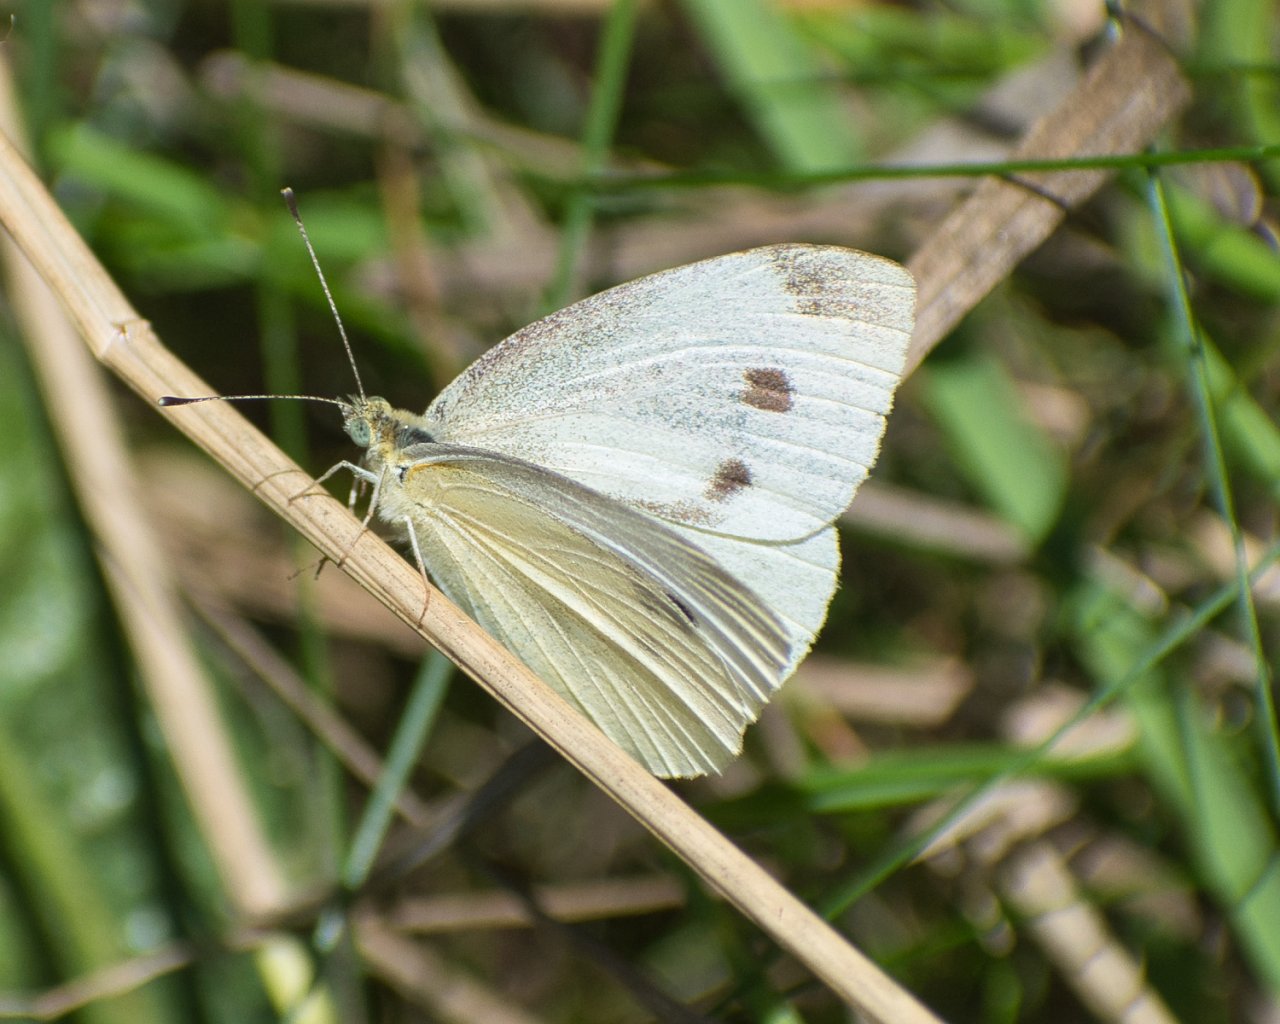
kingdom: Animalia
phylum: Arthropoda
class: Insecta
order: Lepidoptera
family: Pieridae
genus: Pieris
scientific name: Pieris rapae
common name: Cabbage White
